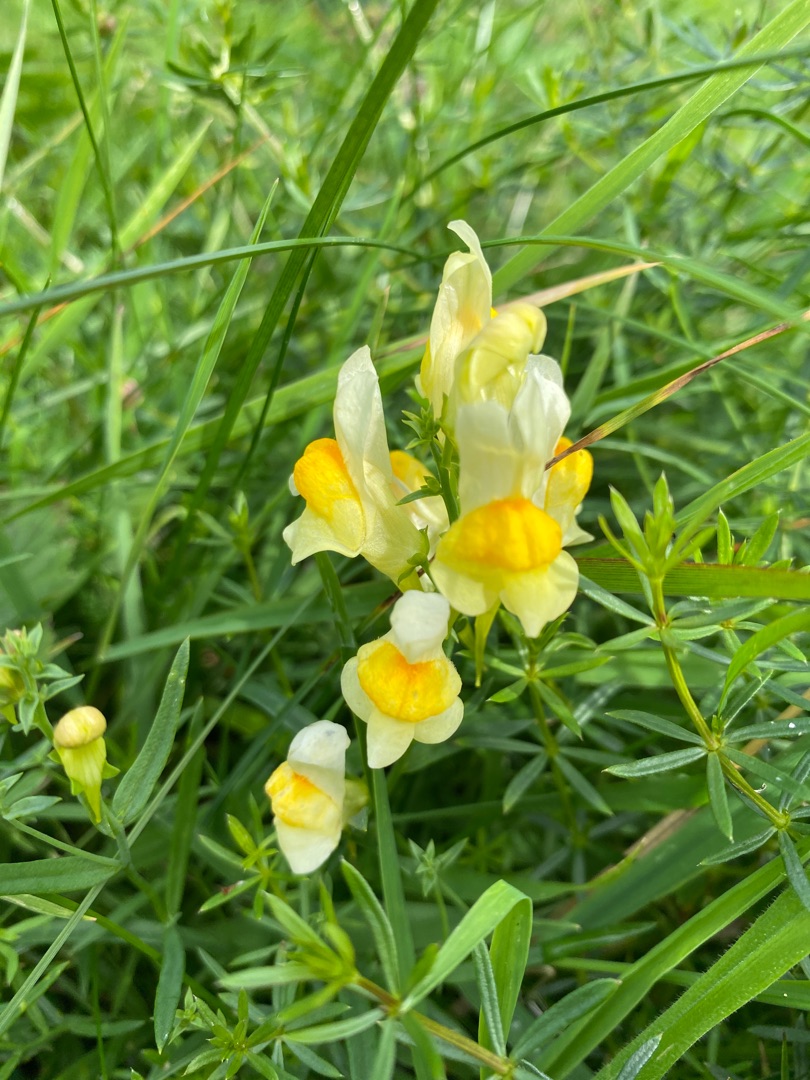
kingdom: Plantae
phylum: Tracheophyta
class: Magnoliopsida
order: Lamiales
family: Plantaginaceae
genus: Linaria
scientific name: Linaria vulgaris
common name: Almindelig torskemund
